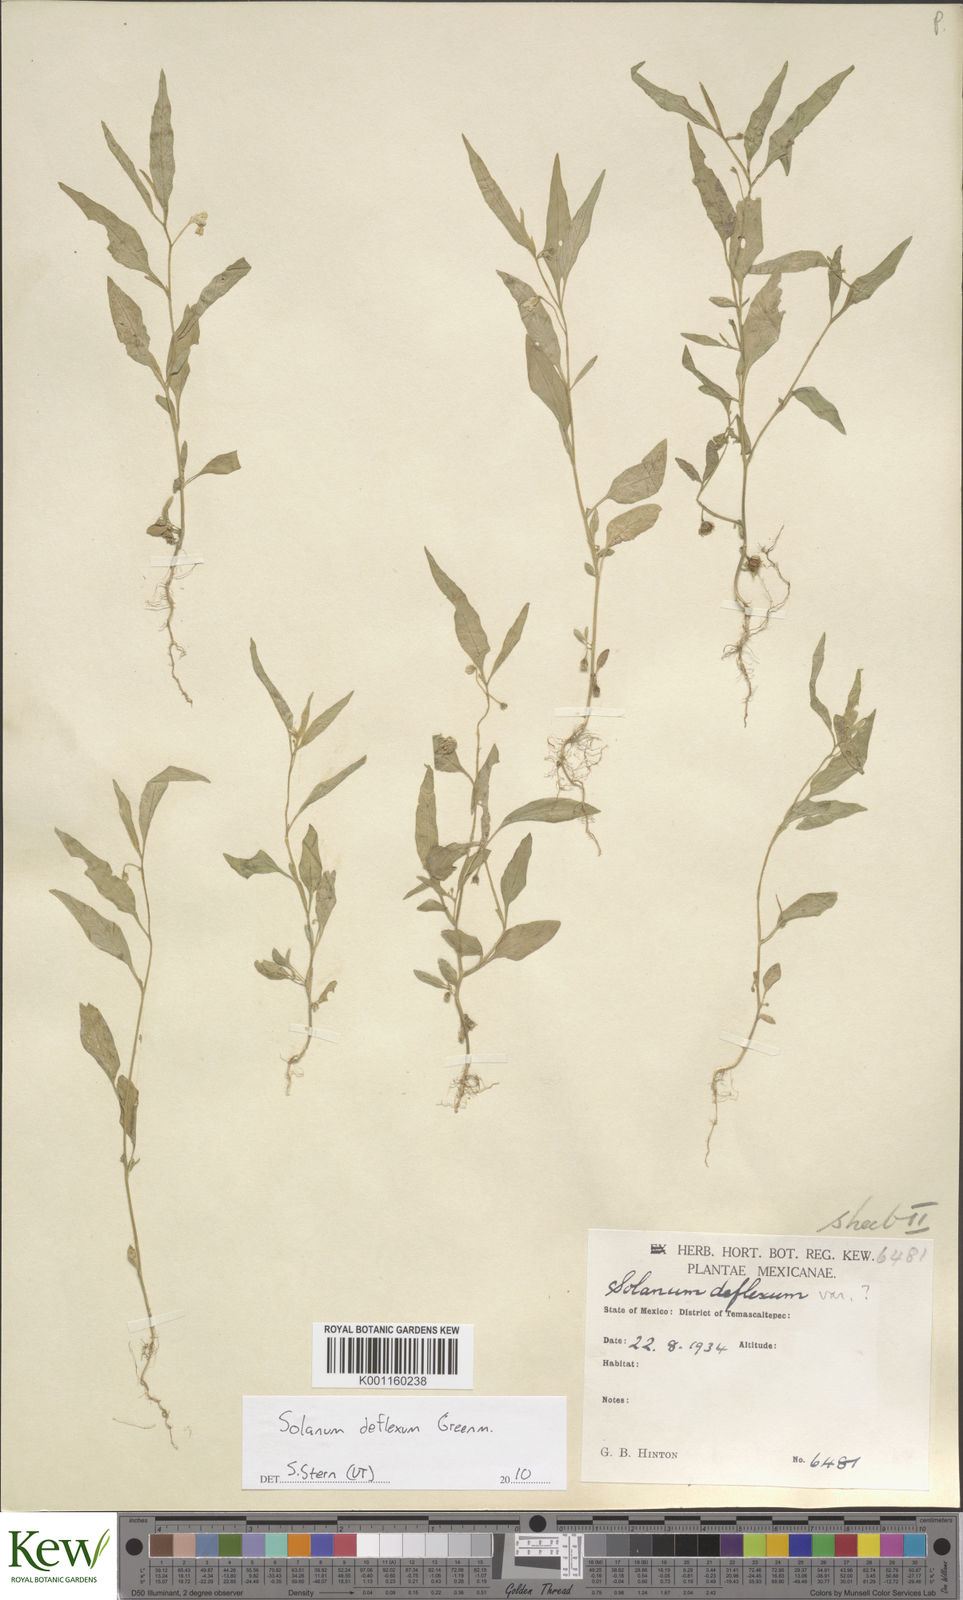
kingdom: Plantae
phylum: Tracheophyta
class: Magnoliopsida
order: Solanales
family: Solanaceae
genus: Solanum
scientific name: Solanum deflexum
